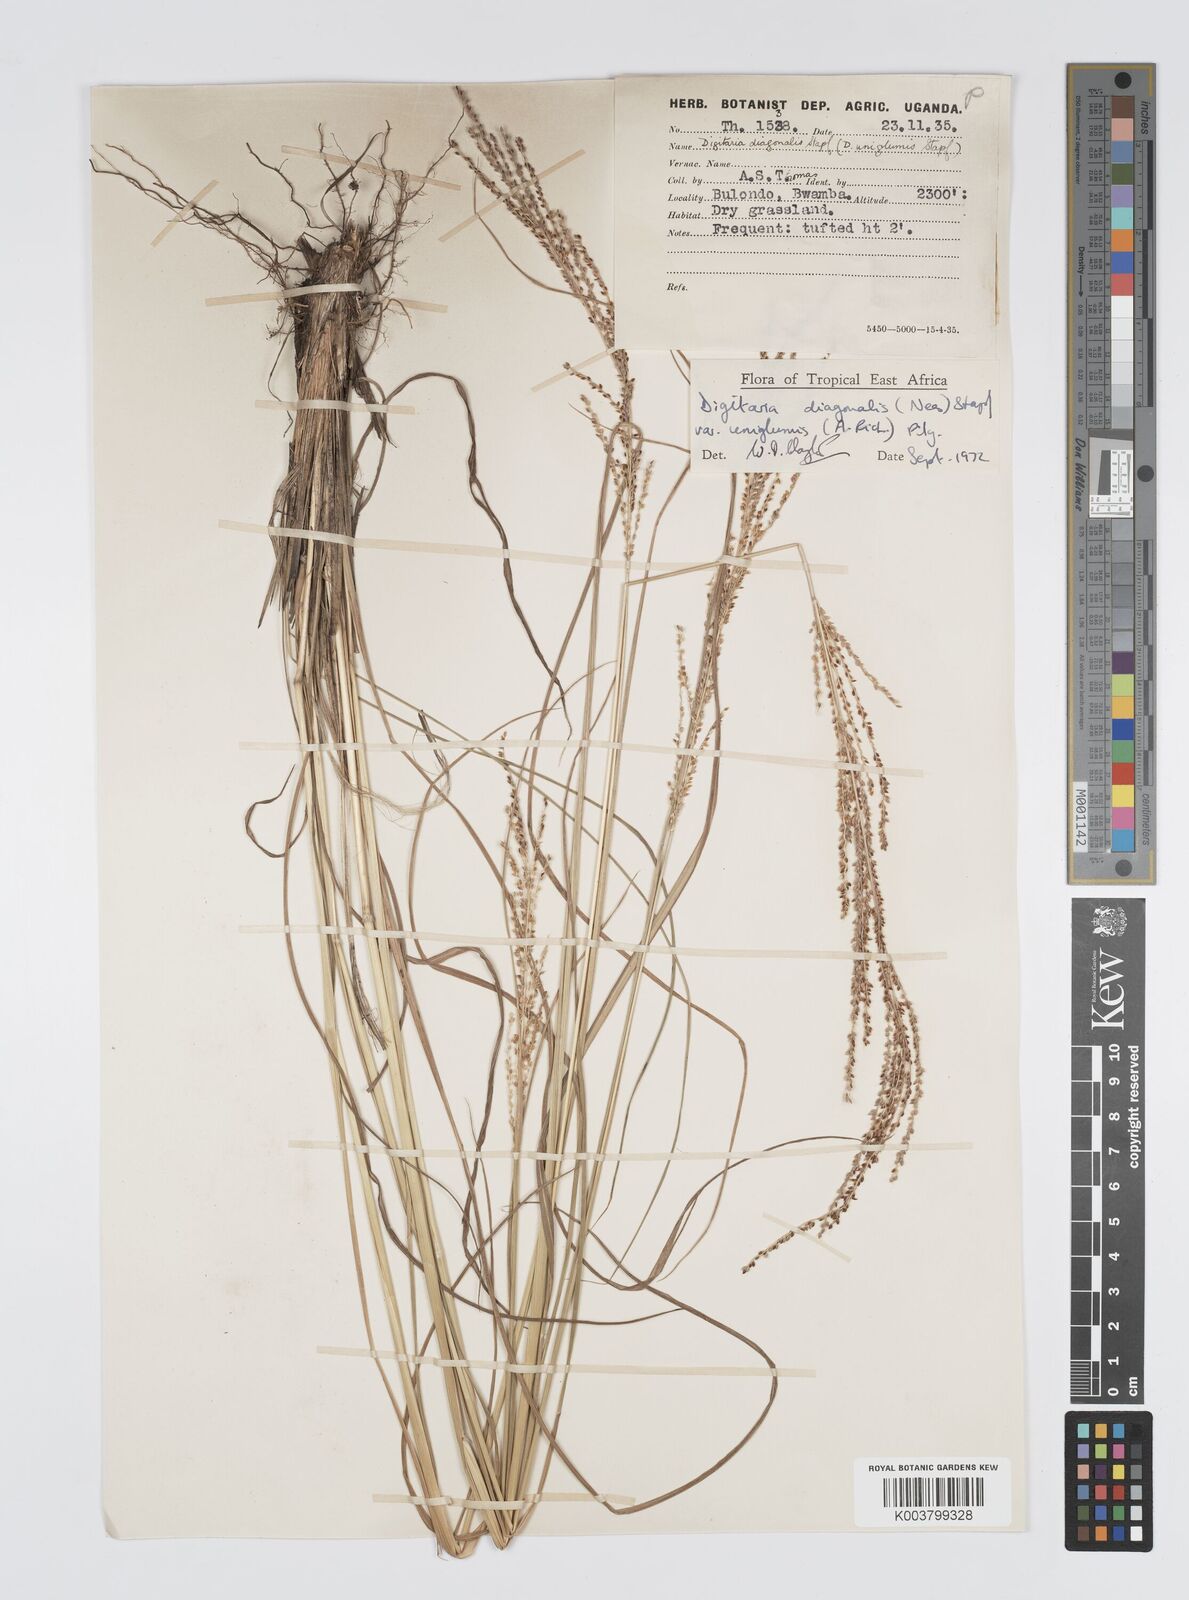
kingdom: Plantae
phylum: Tracheophyta
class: Liliopsida
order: Poales
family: Poaceae
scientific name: Poaceae
